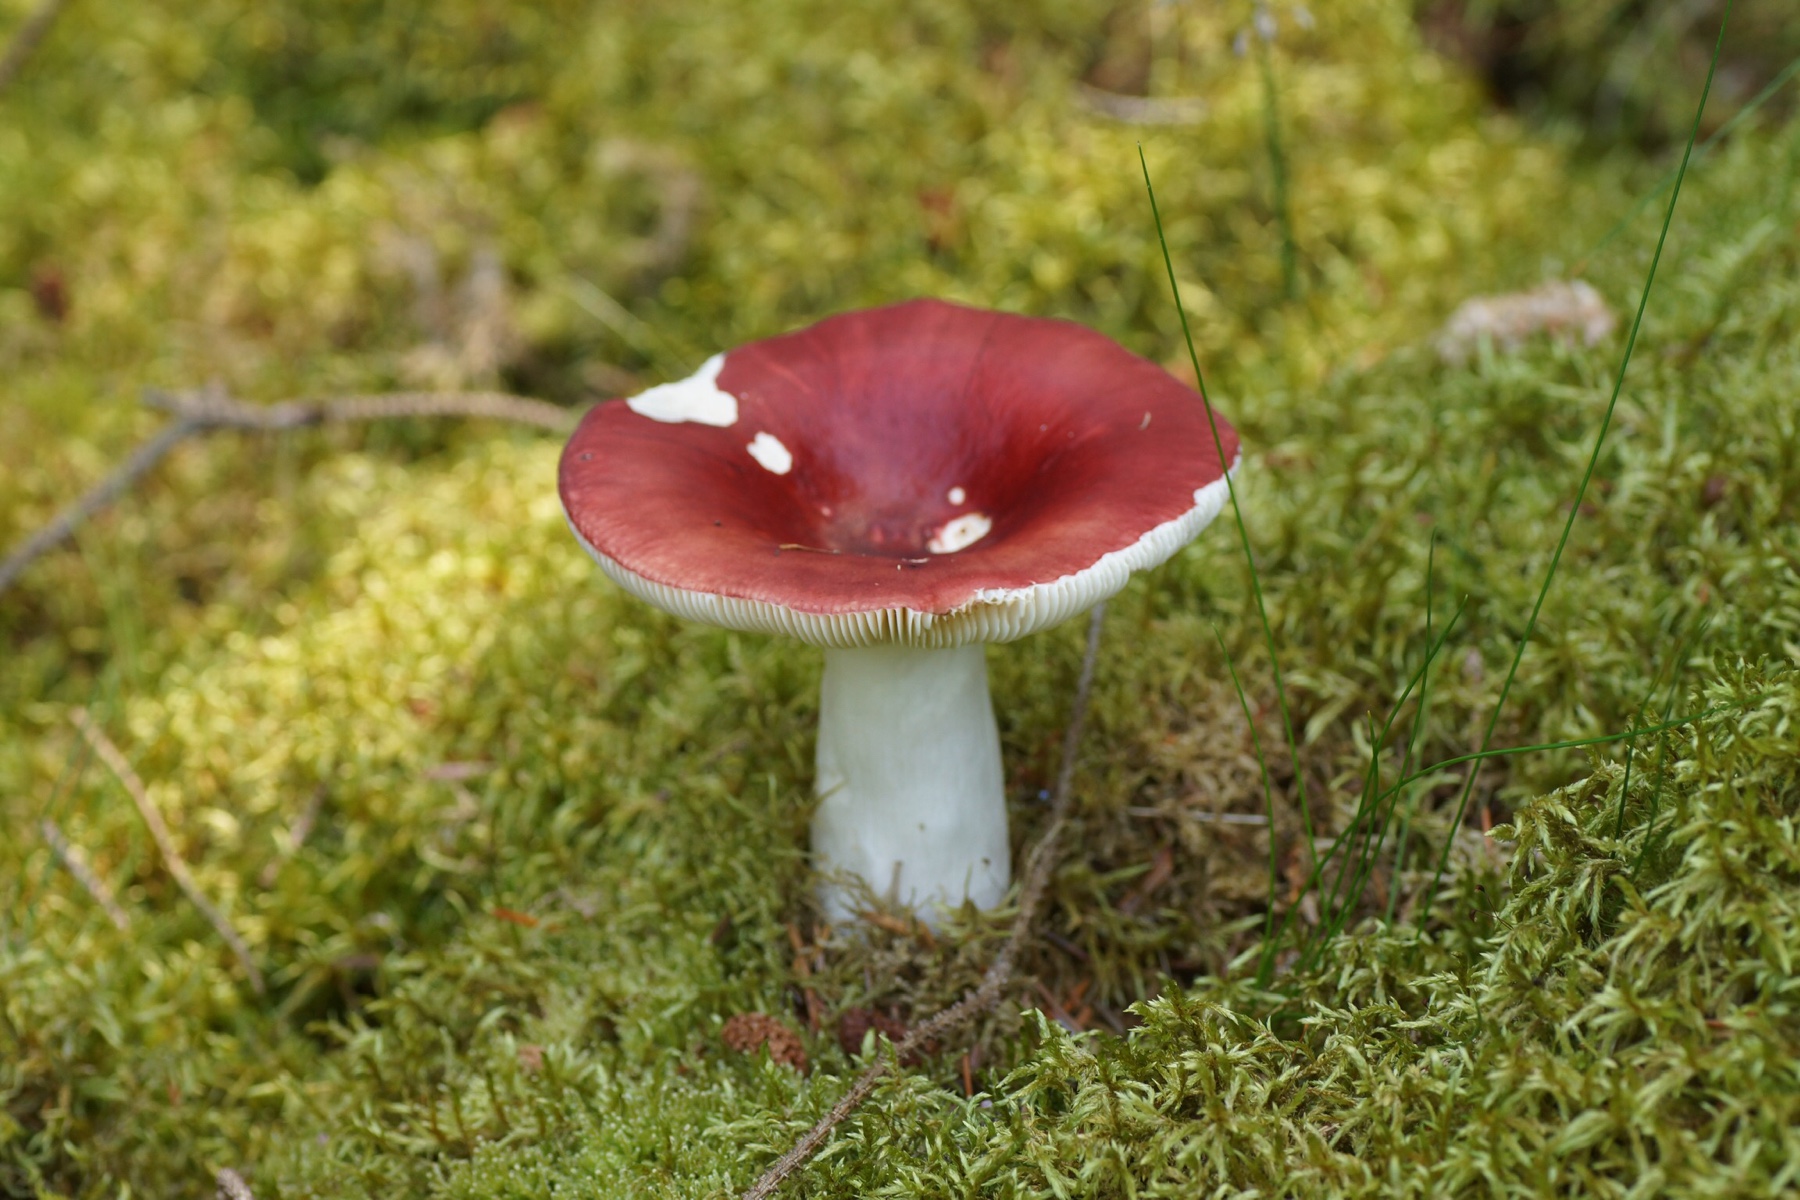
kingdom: Fungi
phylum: Basidiomycota
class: Agaricomycetes
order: Russulales
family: Russulaceae
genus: Russula
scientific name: Russula paludosa
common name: prægtig skørhat
